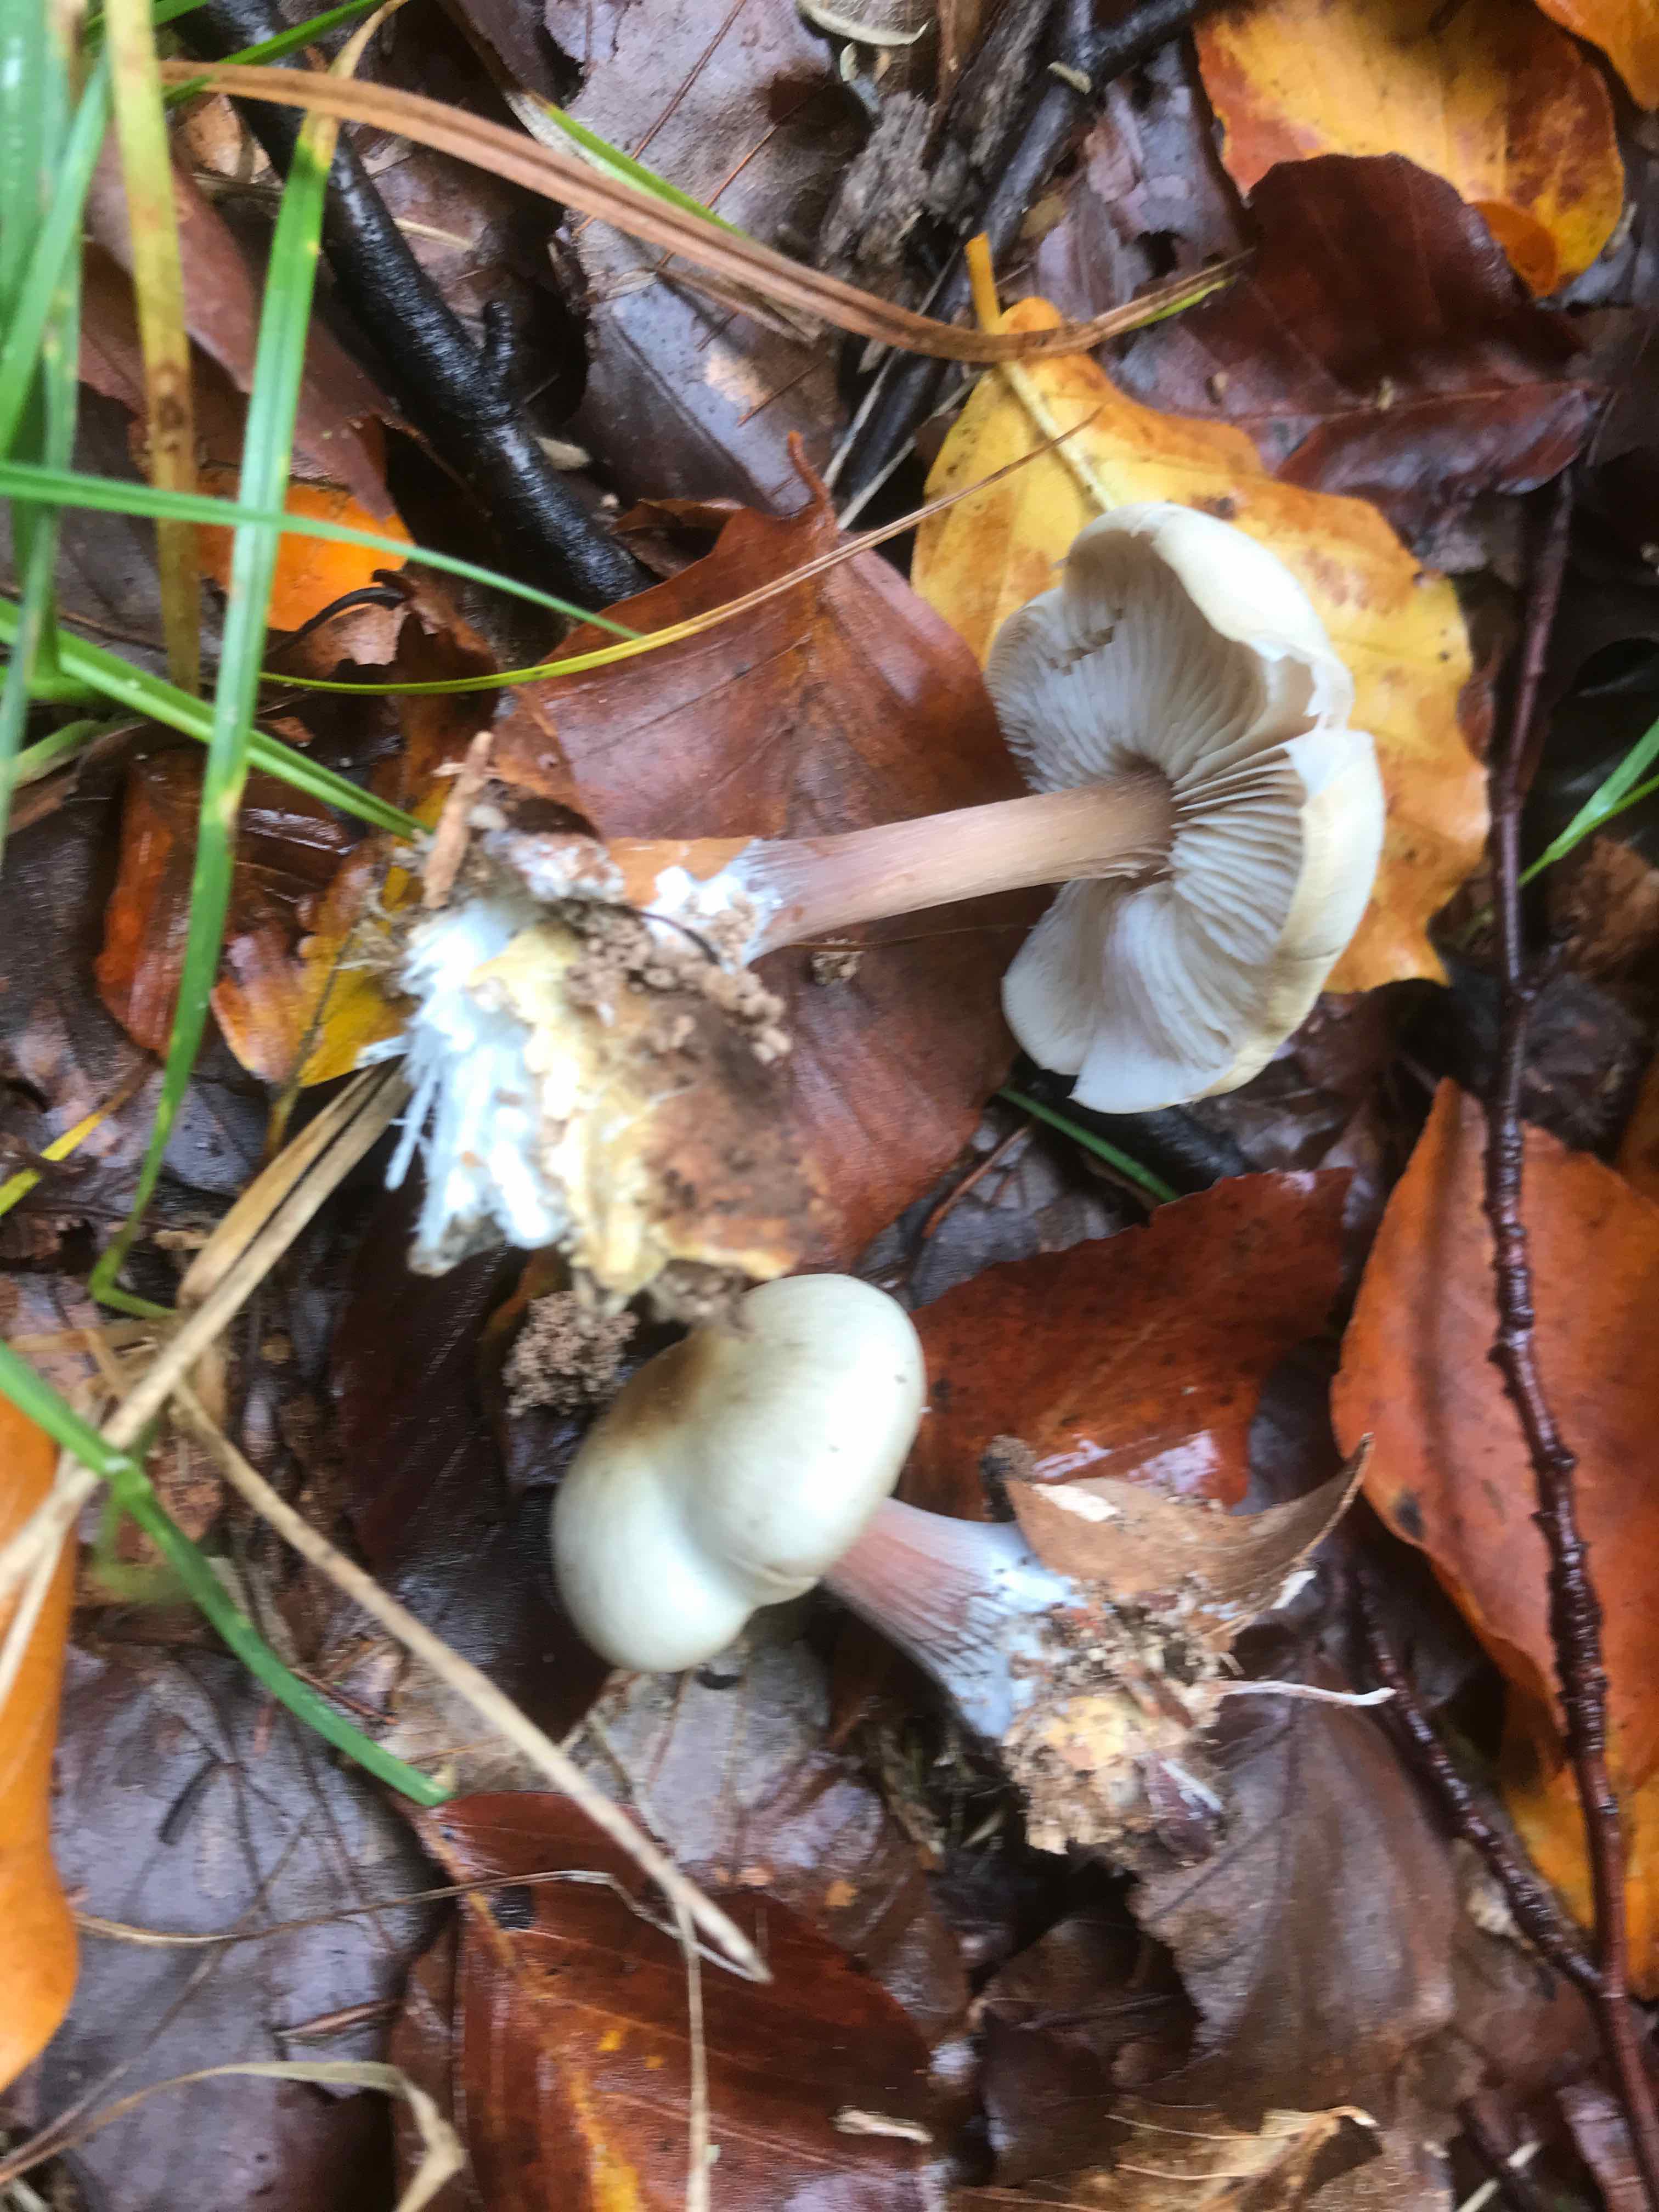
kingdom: Fungi
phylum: Basidiomycota
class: Agaricomycetes
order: Agaricales
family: Omphalotaceae
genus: Rhodocollybia
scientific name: Rhodocollybia asema
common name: horngrå fladhat
